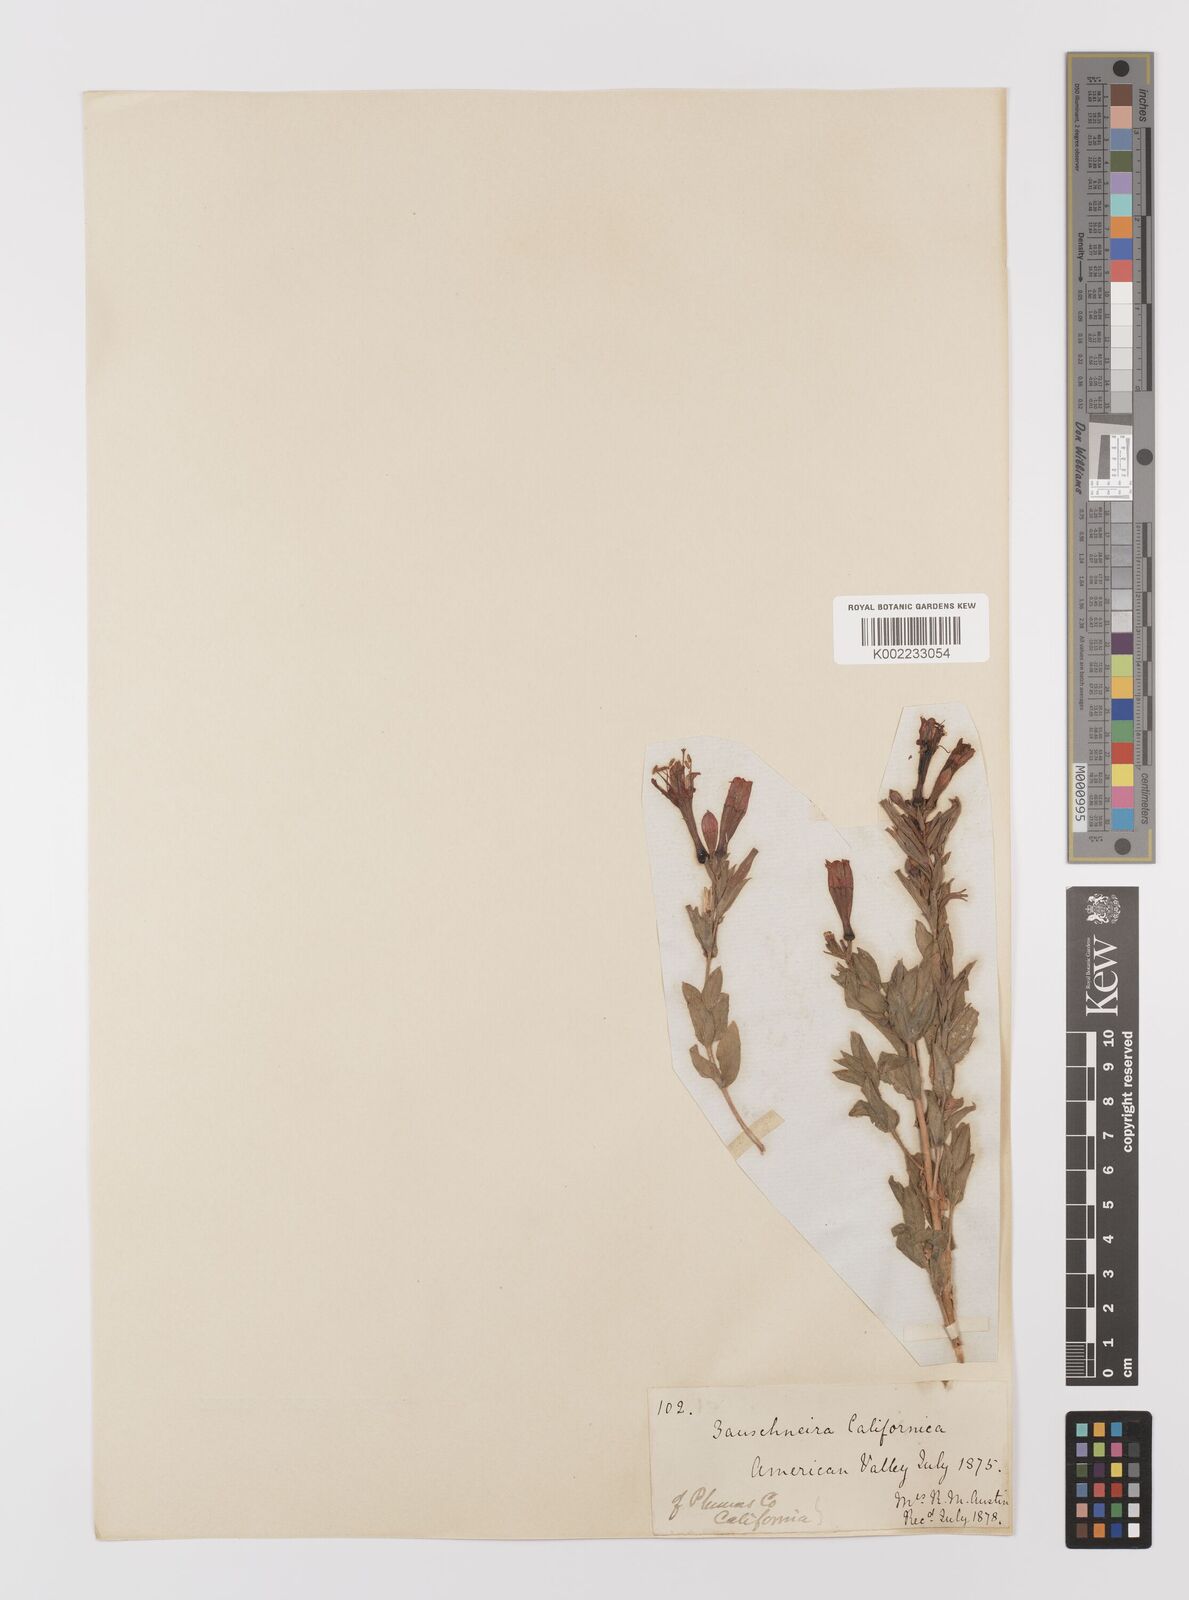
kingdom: Plantae
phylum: Tracheophyta
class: Magnoliopsida
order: Myrtales
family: Onagraceae
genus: Epilobium
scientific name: Epilobium
